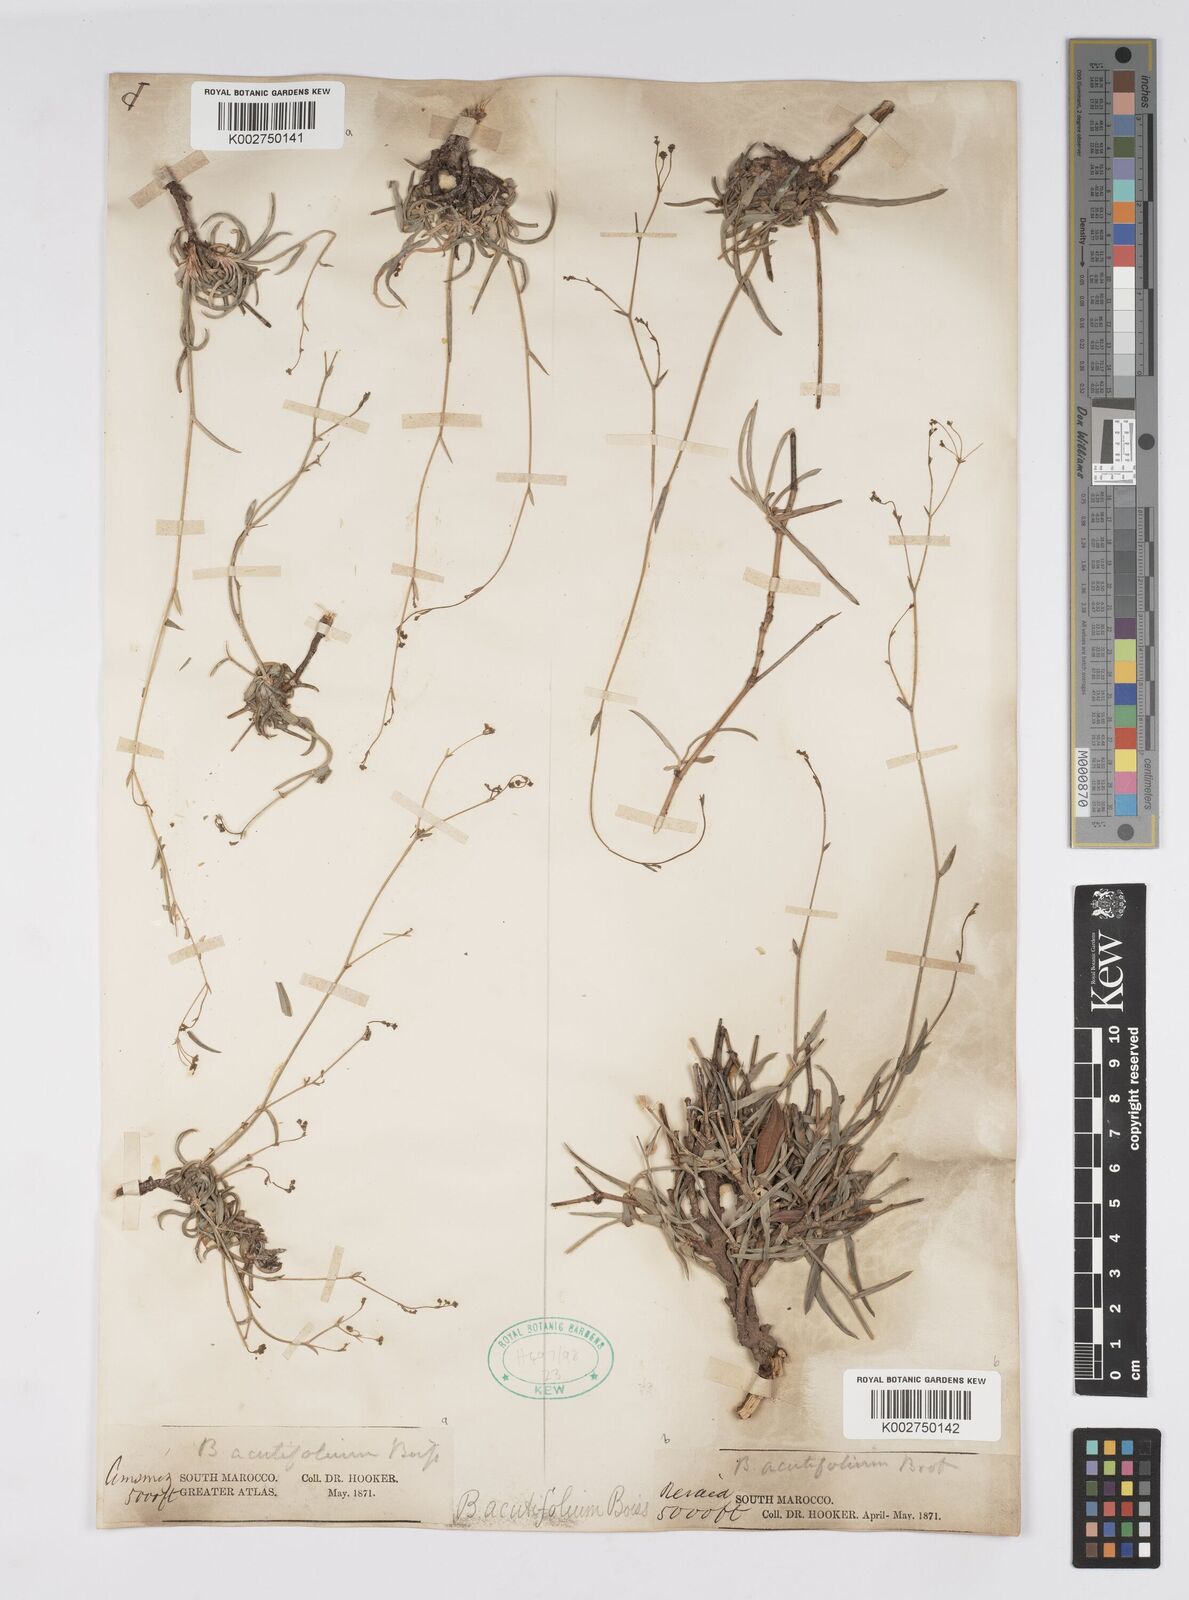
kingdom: Plantae
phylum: Tracheophyta
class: Magnoliopsida
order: Apiales
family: Apiaceae
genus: Bupleurum
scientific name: Bupleurum oligactis
